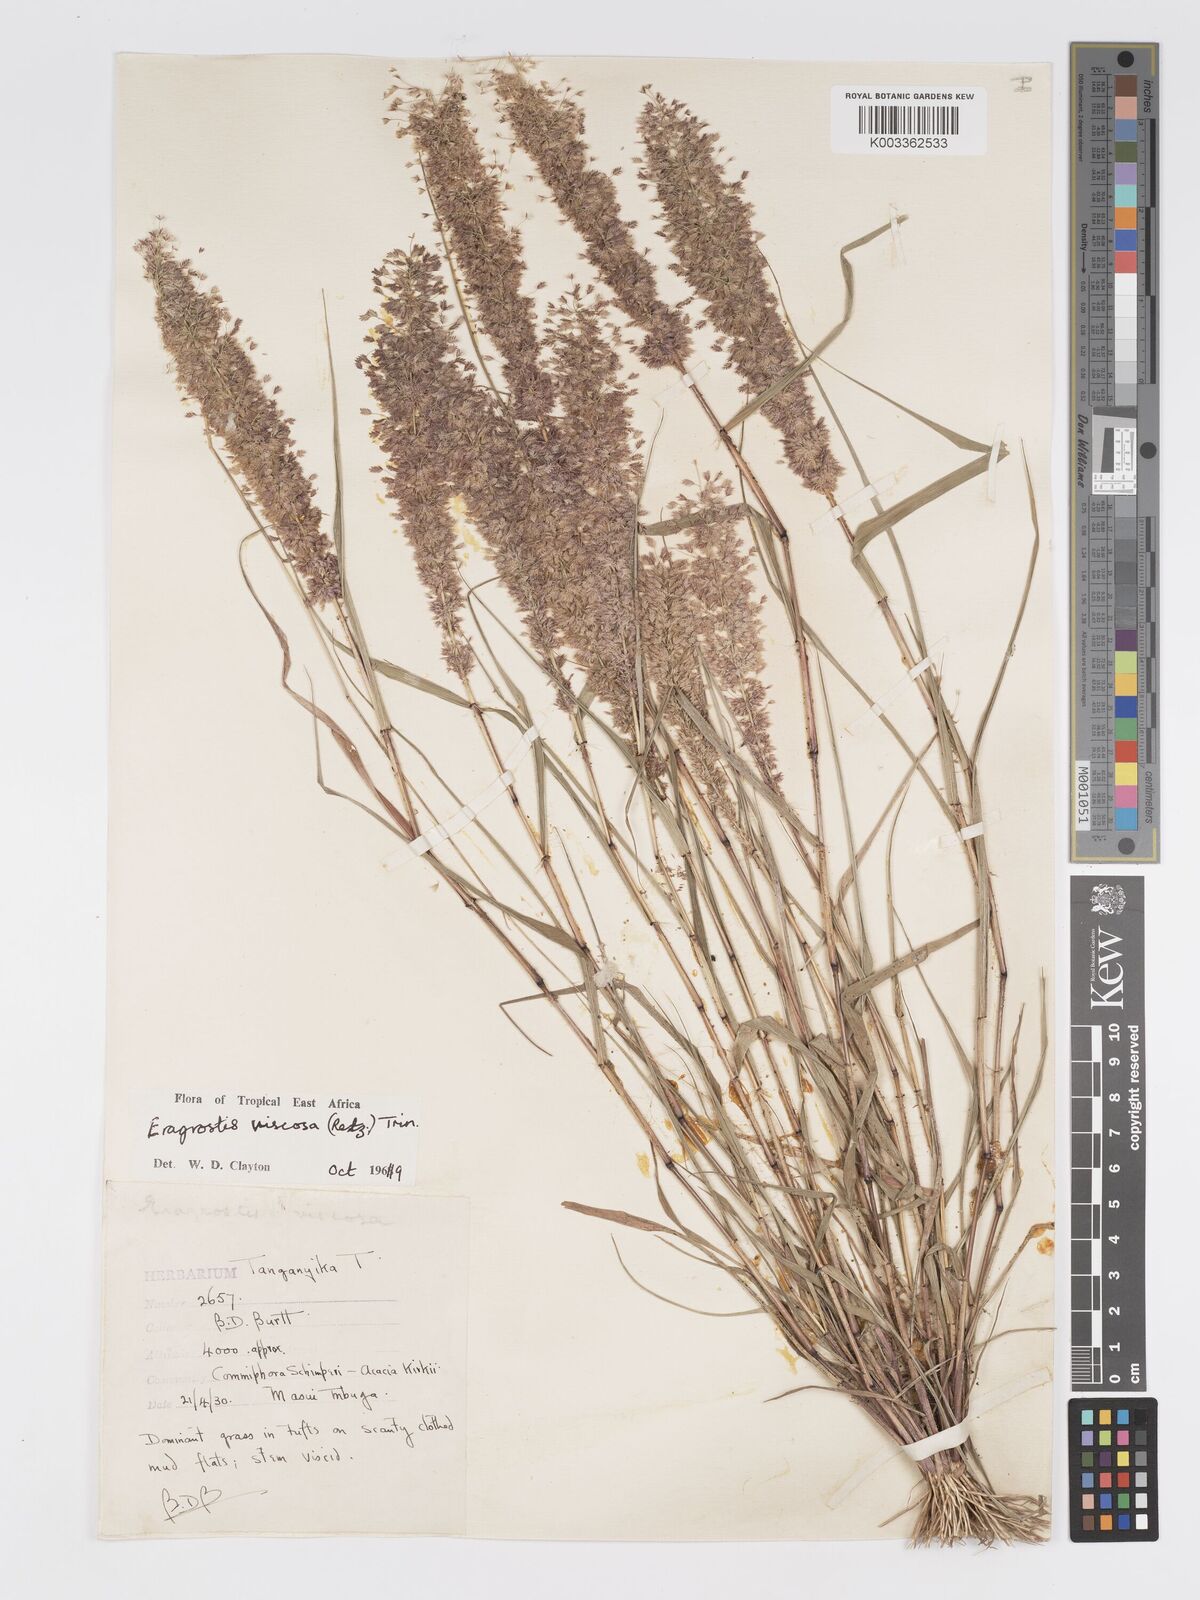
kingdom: Plantae
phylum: Tracheophyta
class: Liliopsida
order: Poales
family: Poaceae
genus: Eragrostis
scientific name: Eragrostis viscosa
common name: Sticky love grass
